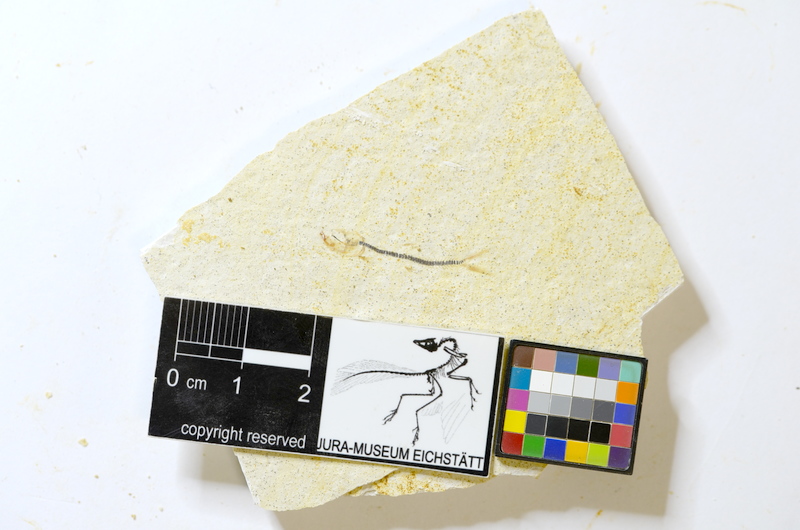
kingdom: Animalia
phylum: Chordata
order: Salmoniformes
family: Orthogonikleithridae
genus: Orthogonikleithrus
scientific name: Orthogonikleithrus hoelli
